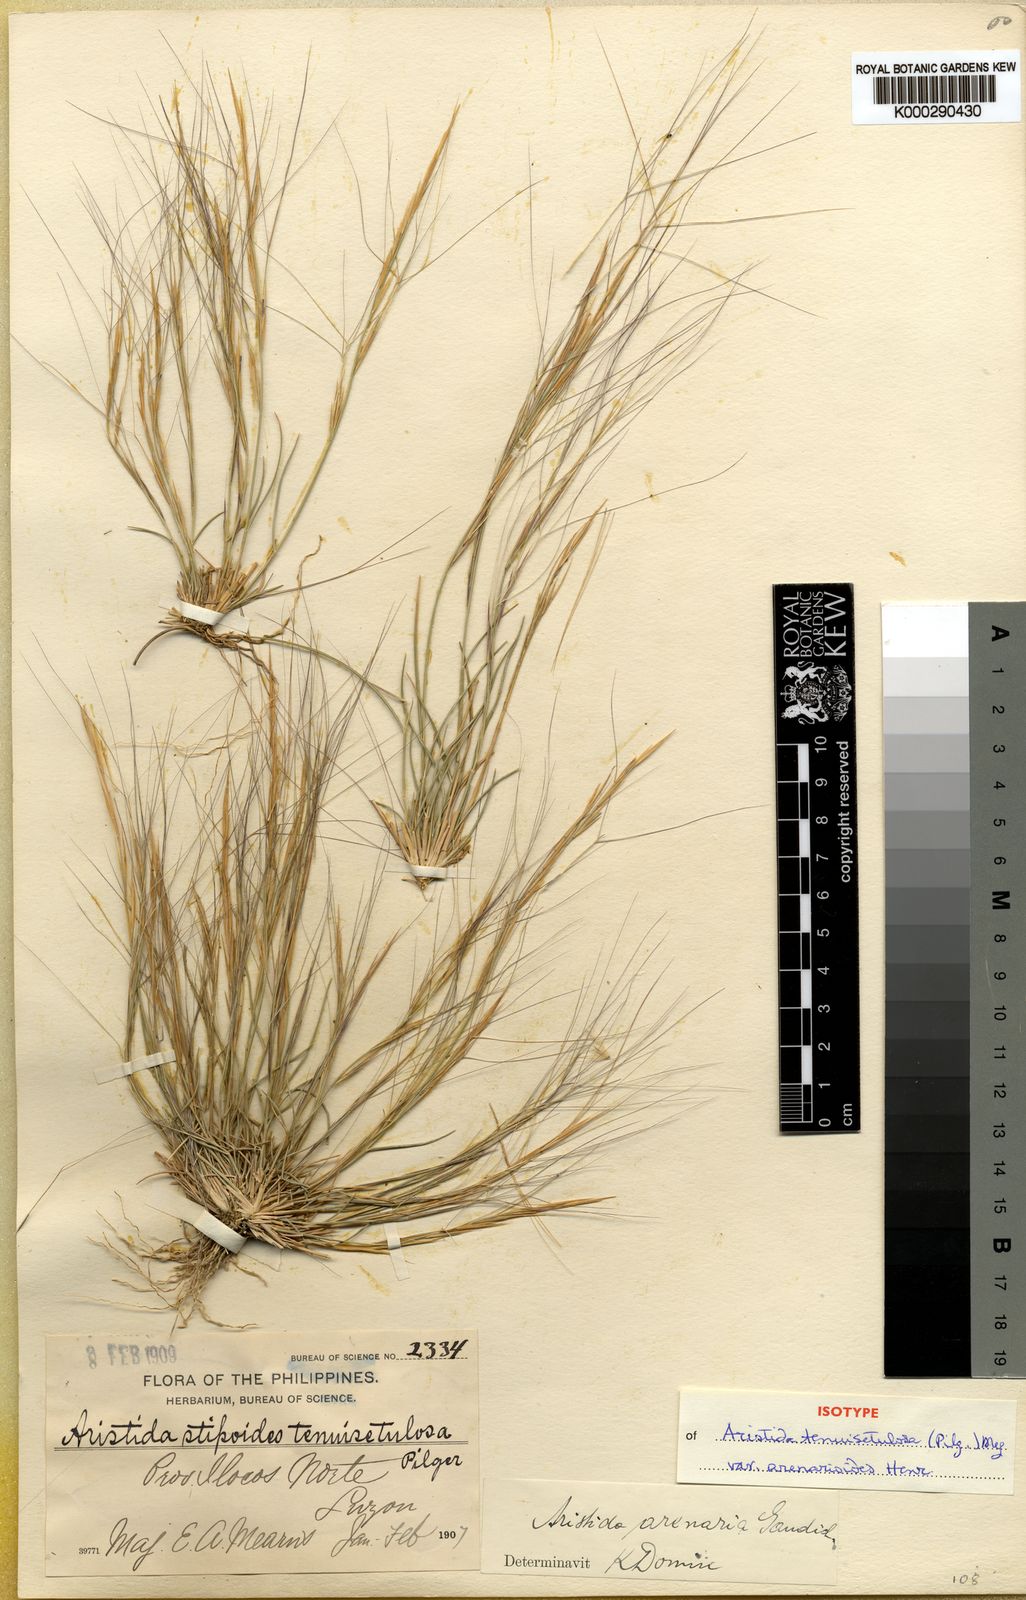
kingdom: Plantae
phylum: Tracheophyta
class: Liliopsida
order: Poales
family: Poaceae
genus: Aristida
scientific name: Aristida holathera
